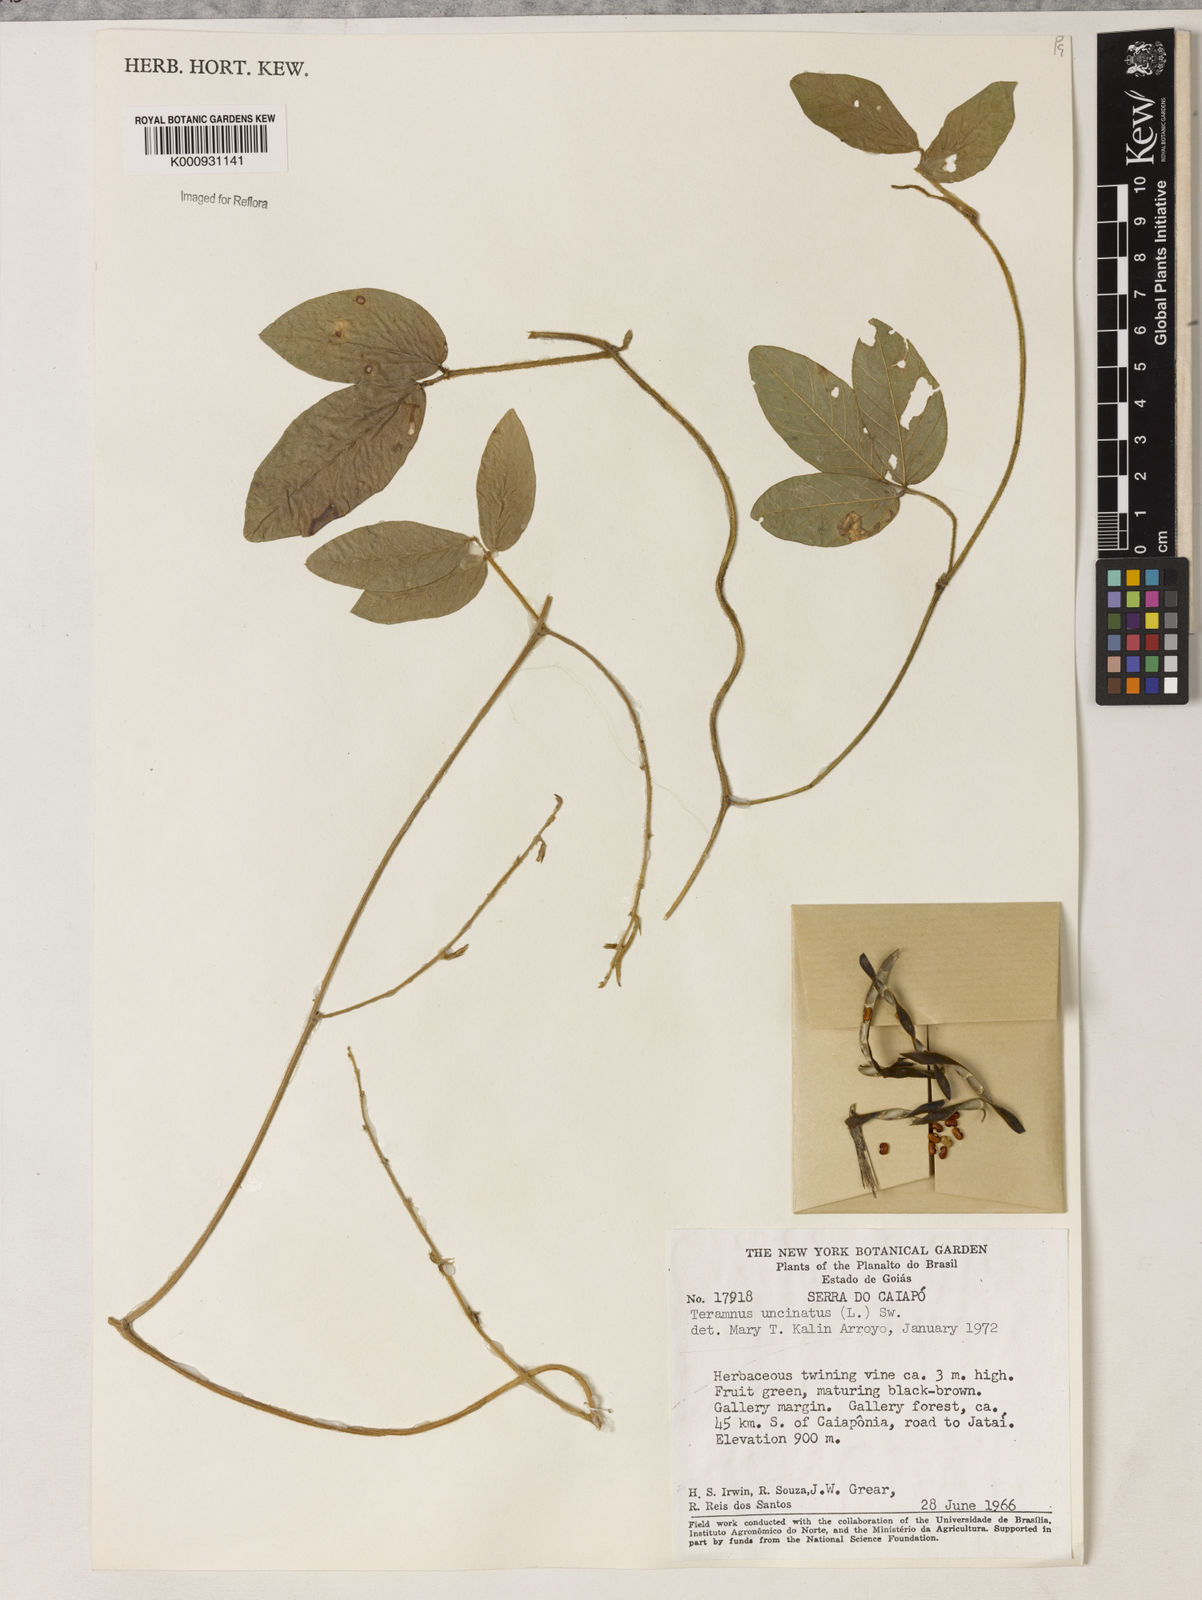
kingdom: Plantae
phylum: Tracheophyta
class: Magnoliopsida
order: Fabales
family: Fabaceae
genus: Teramnus
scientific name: Teramnus uncinatus
